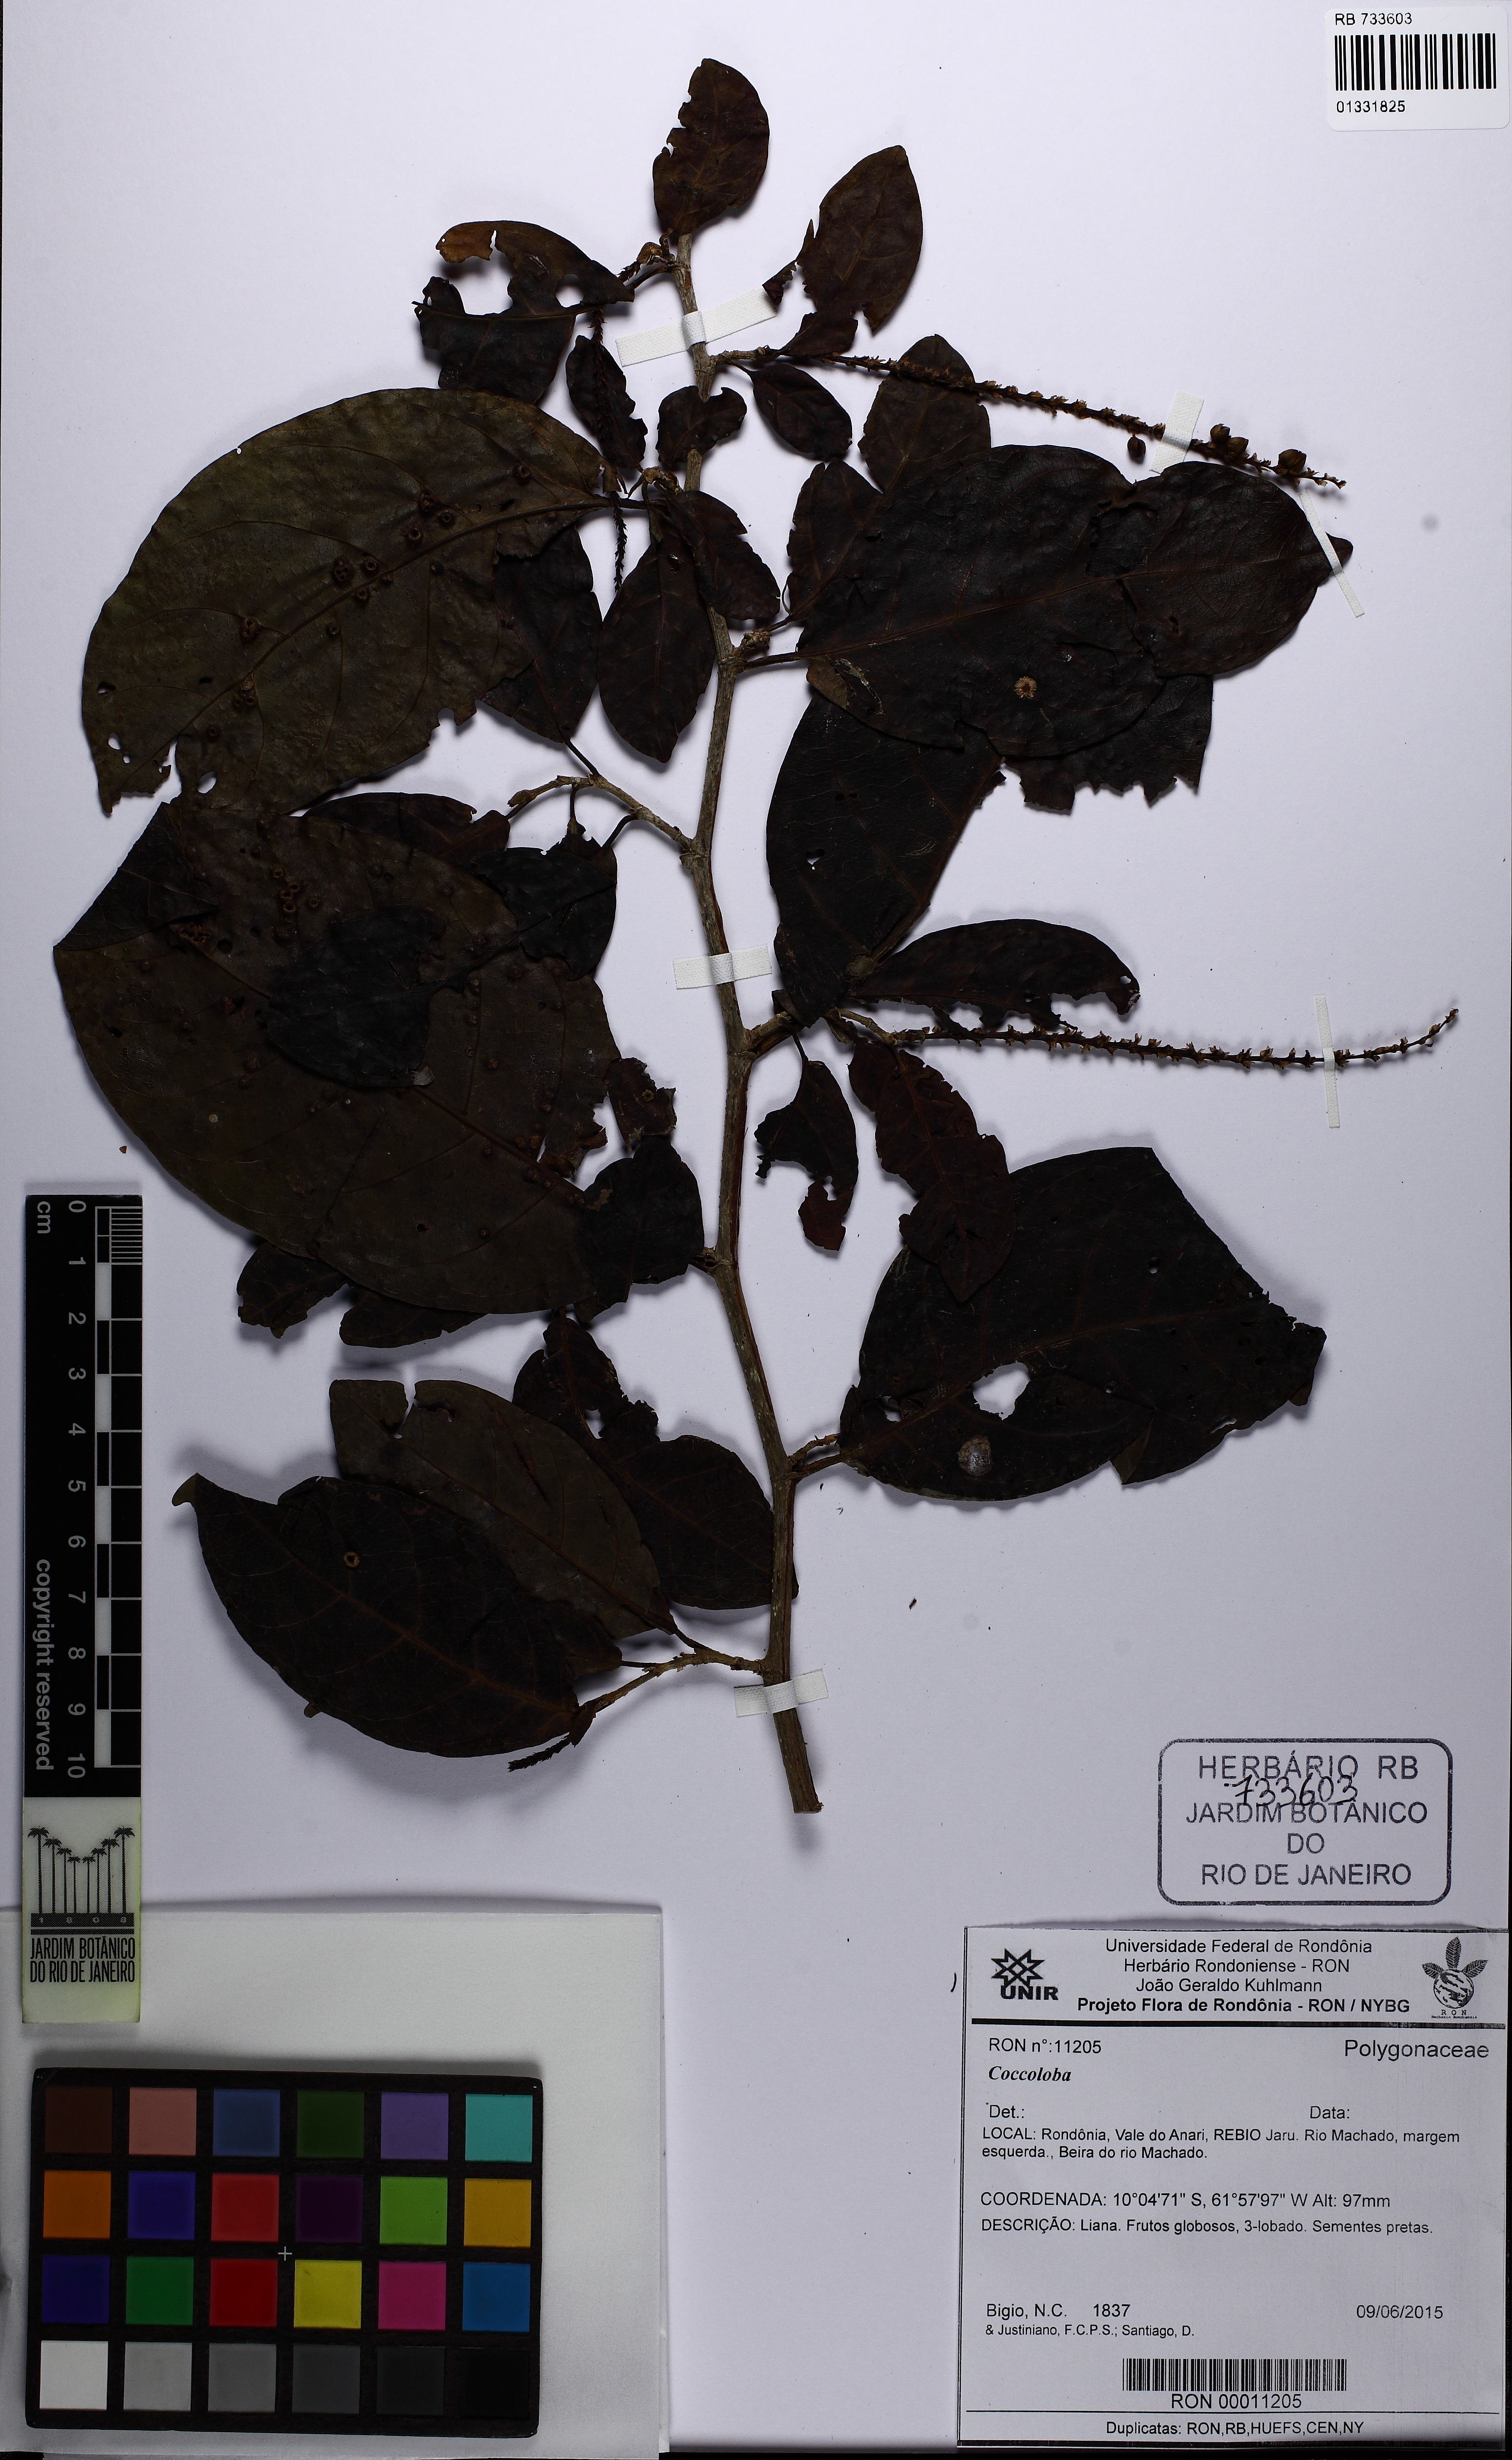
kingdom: Plantae
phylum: Tracheophyta
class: Magnoliopsida
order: Caryophyllales
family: Polygonaceae
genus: Coccoloba
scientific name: Coccoloba
